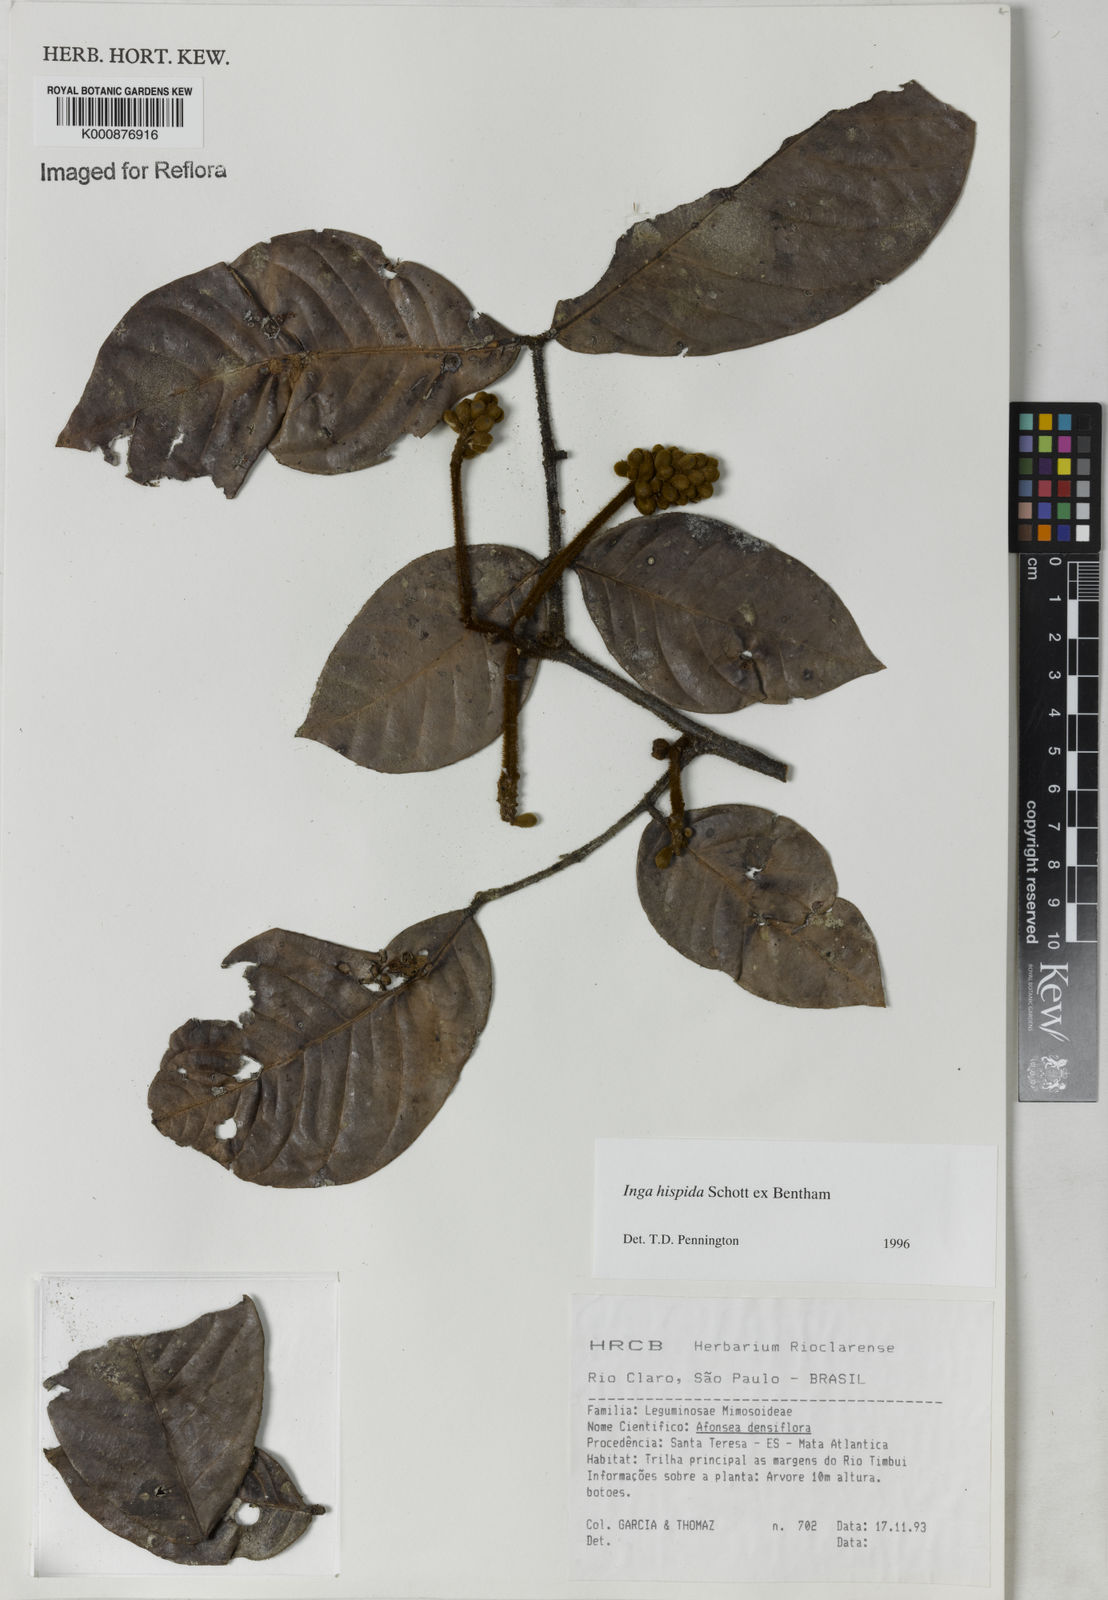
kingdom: Plantae
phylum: Tracheophyta
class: Magnoliopsida
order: Fabales
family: Fabaceae
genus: Inga
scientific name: Inga hispida
